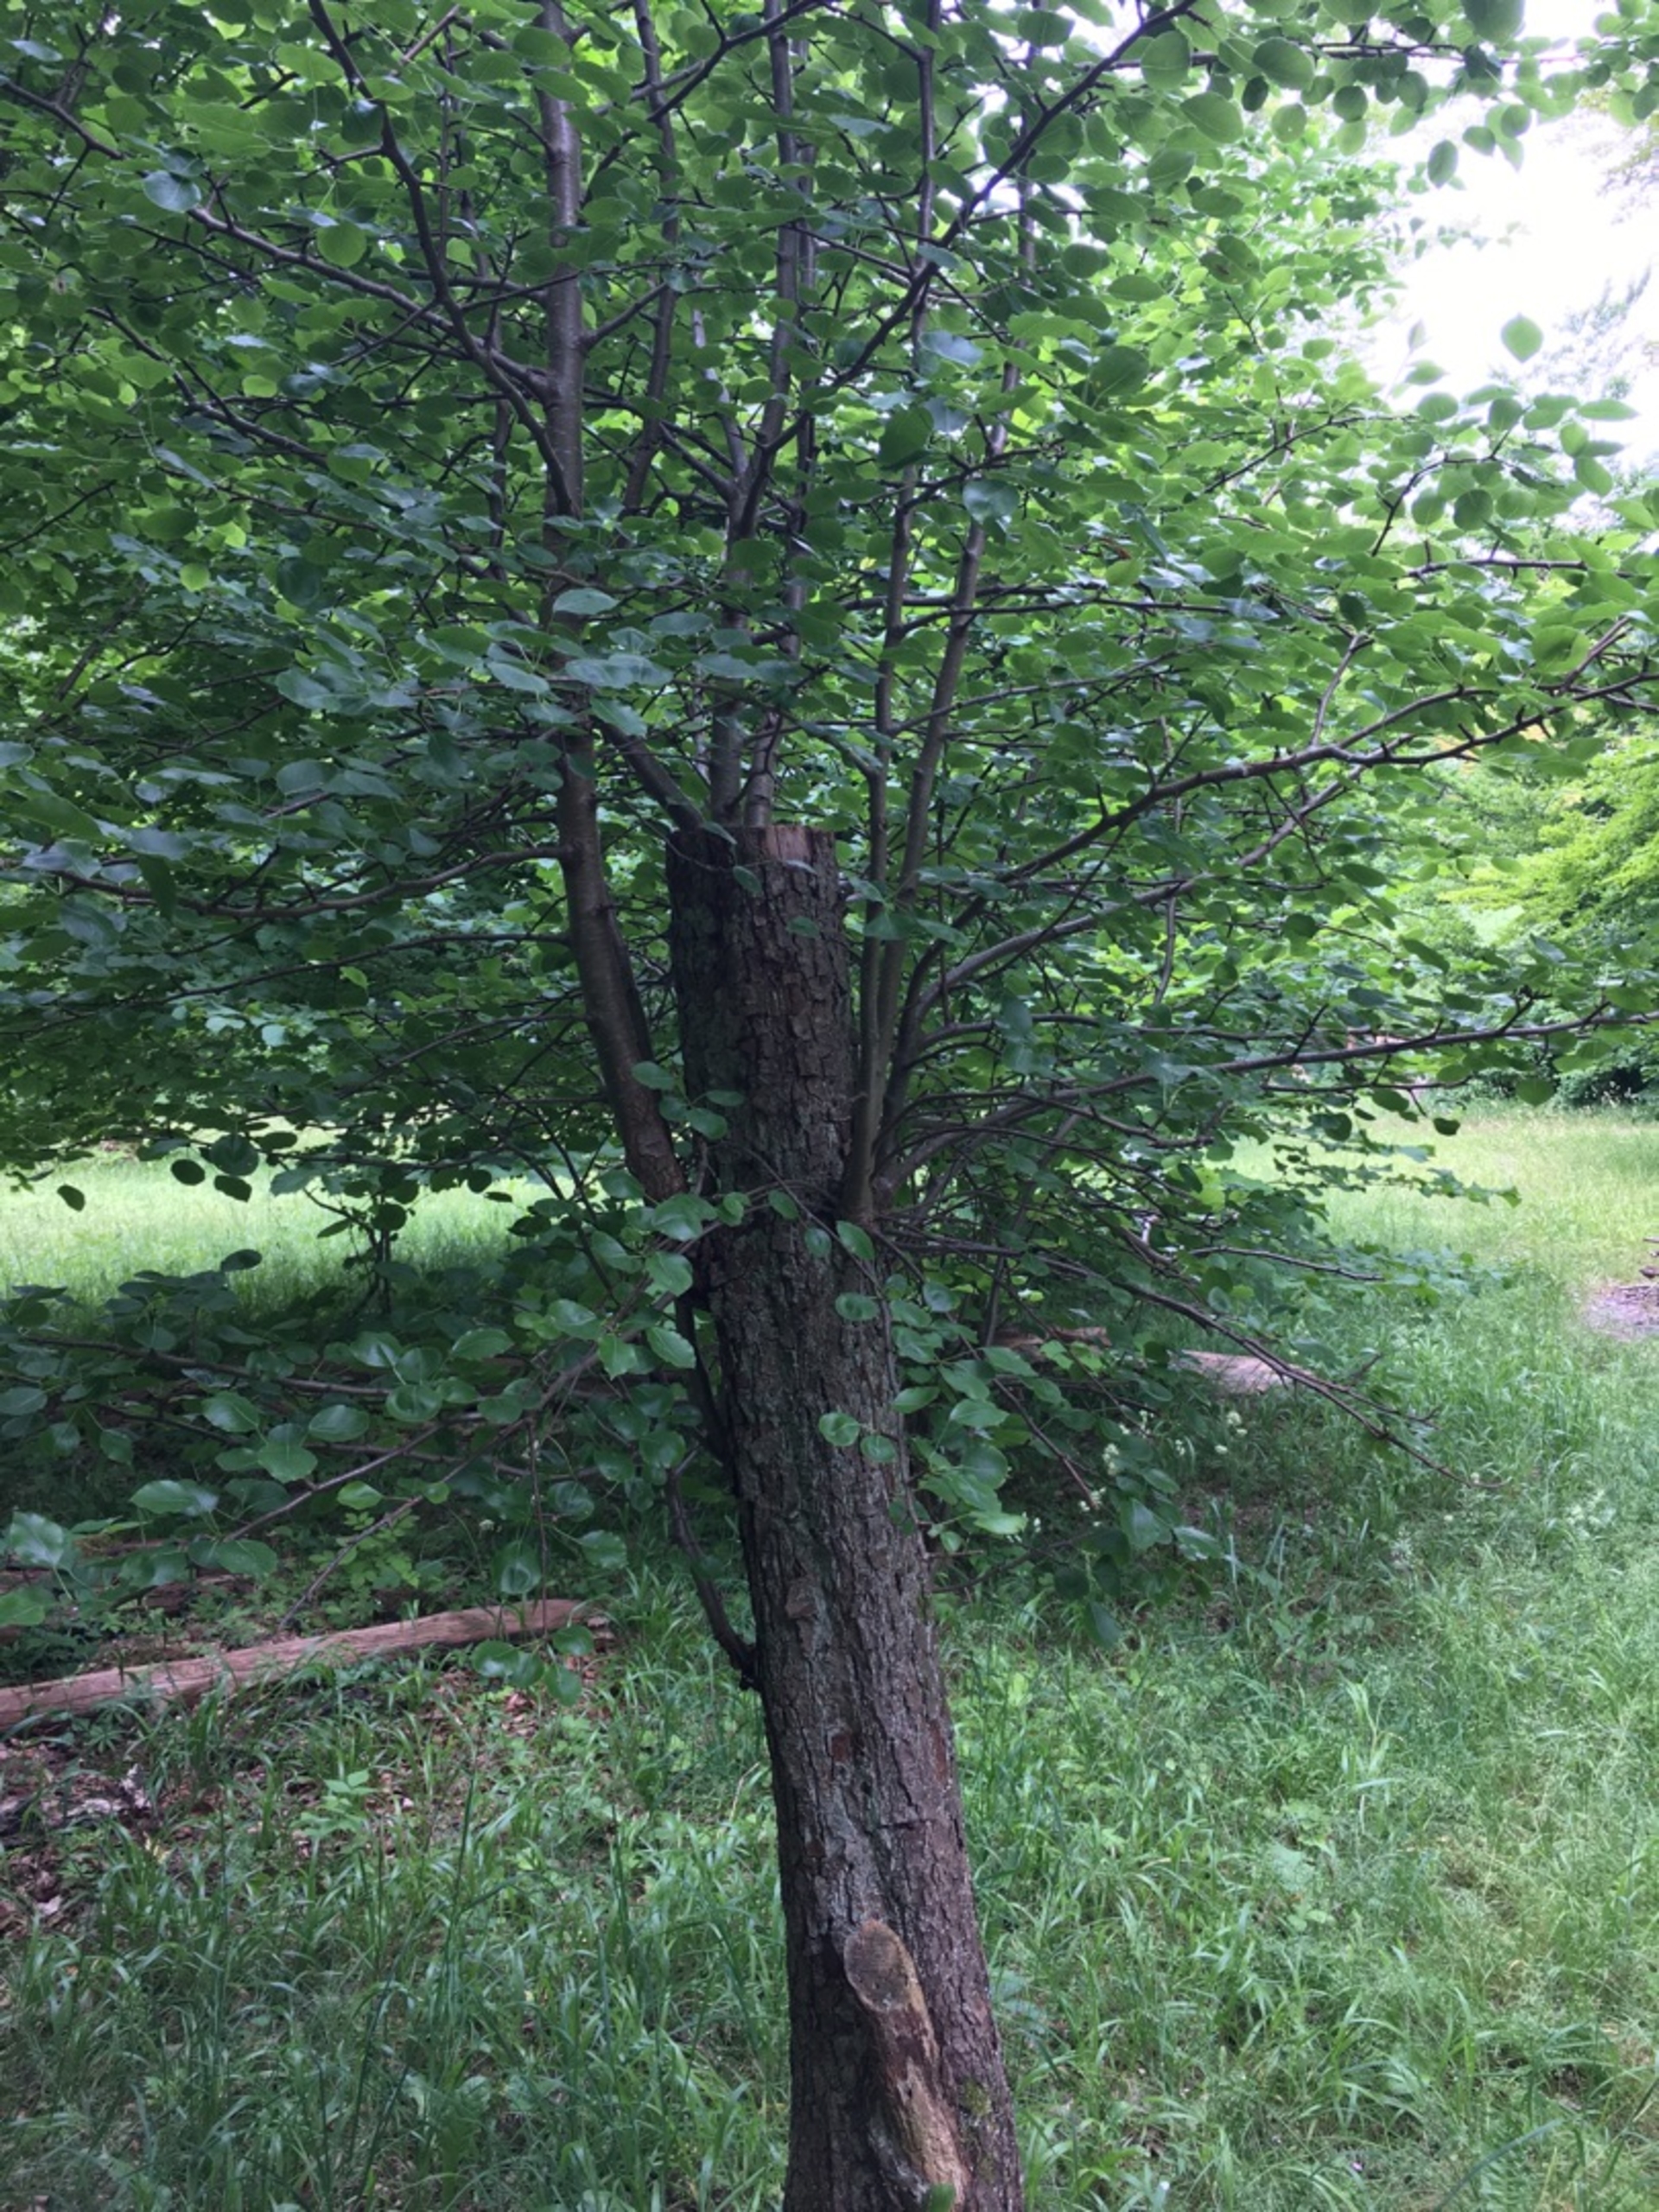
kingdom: Plantae
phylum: Tracheophyta
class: Magnoliopsida
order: Rosales
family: Rosaceae
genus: Pyrus
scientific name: Pyrus communis
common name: Pære
